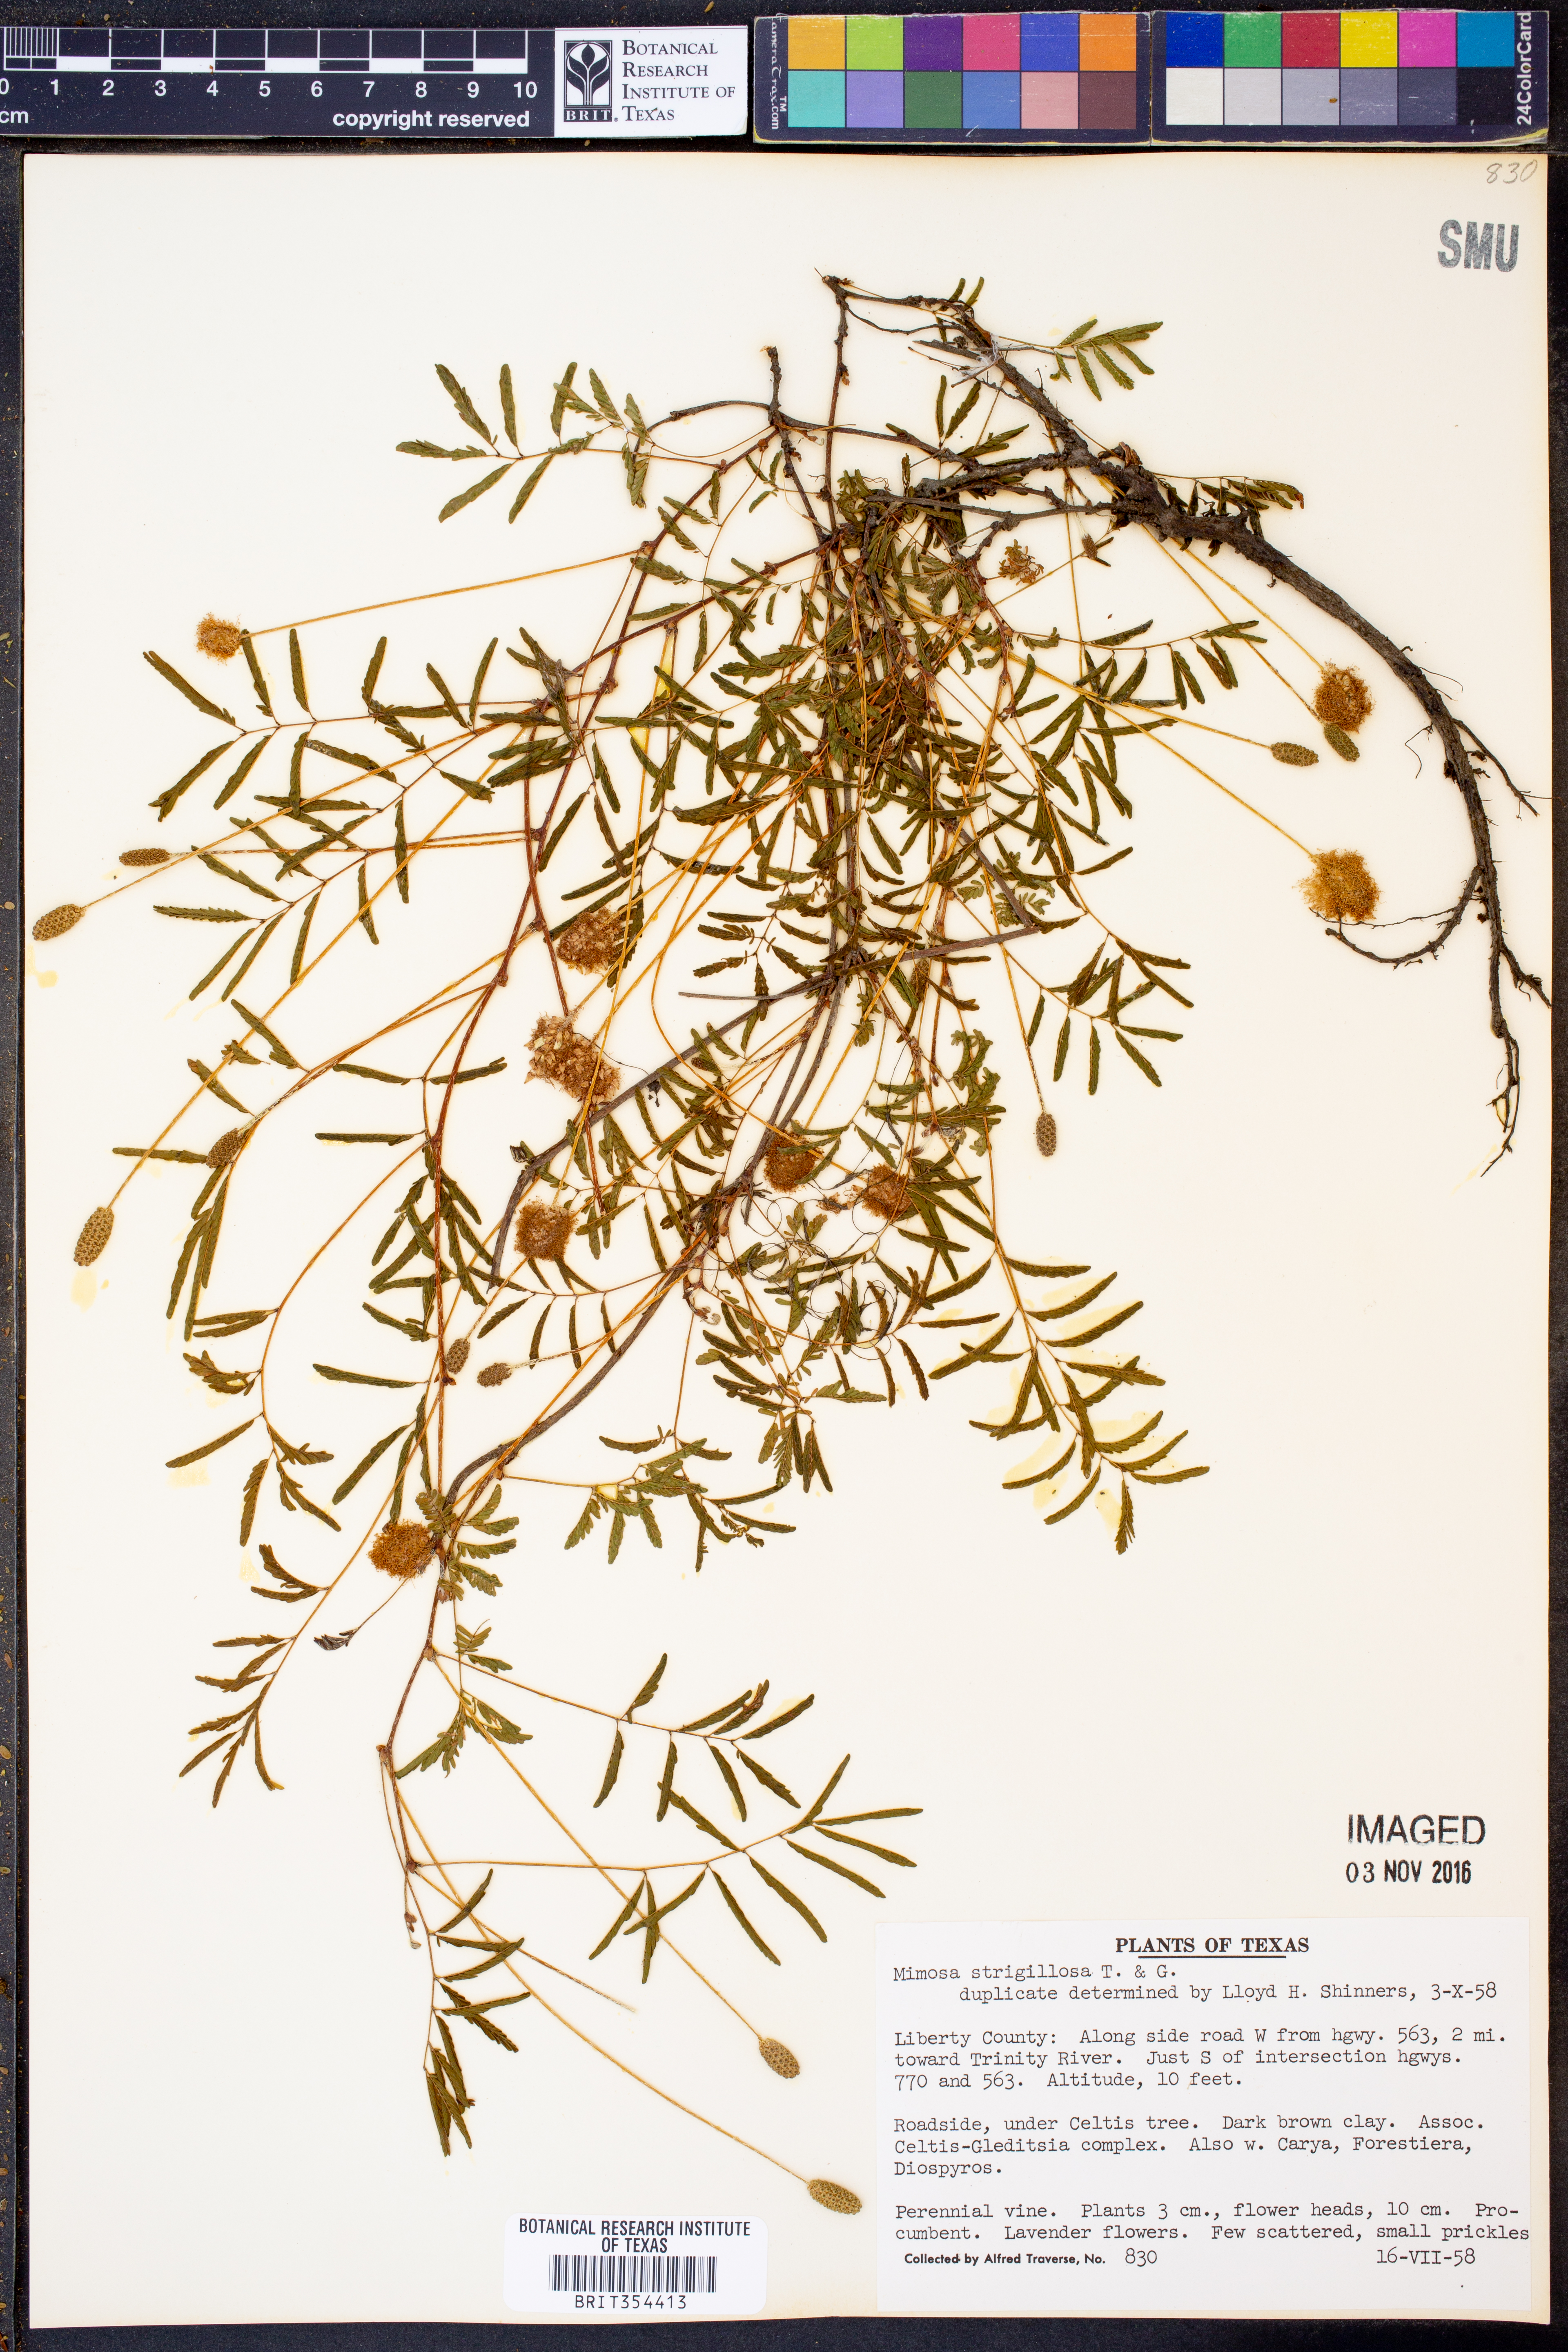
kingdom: Plantae
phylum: Tracheophyta
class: Magnoliopsida
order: Fabales
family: Fabaceae
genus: Mimosa
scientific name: Mimosa strigillosa
